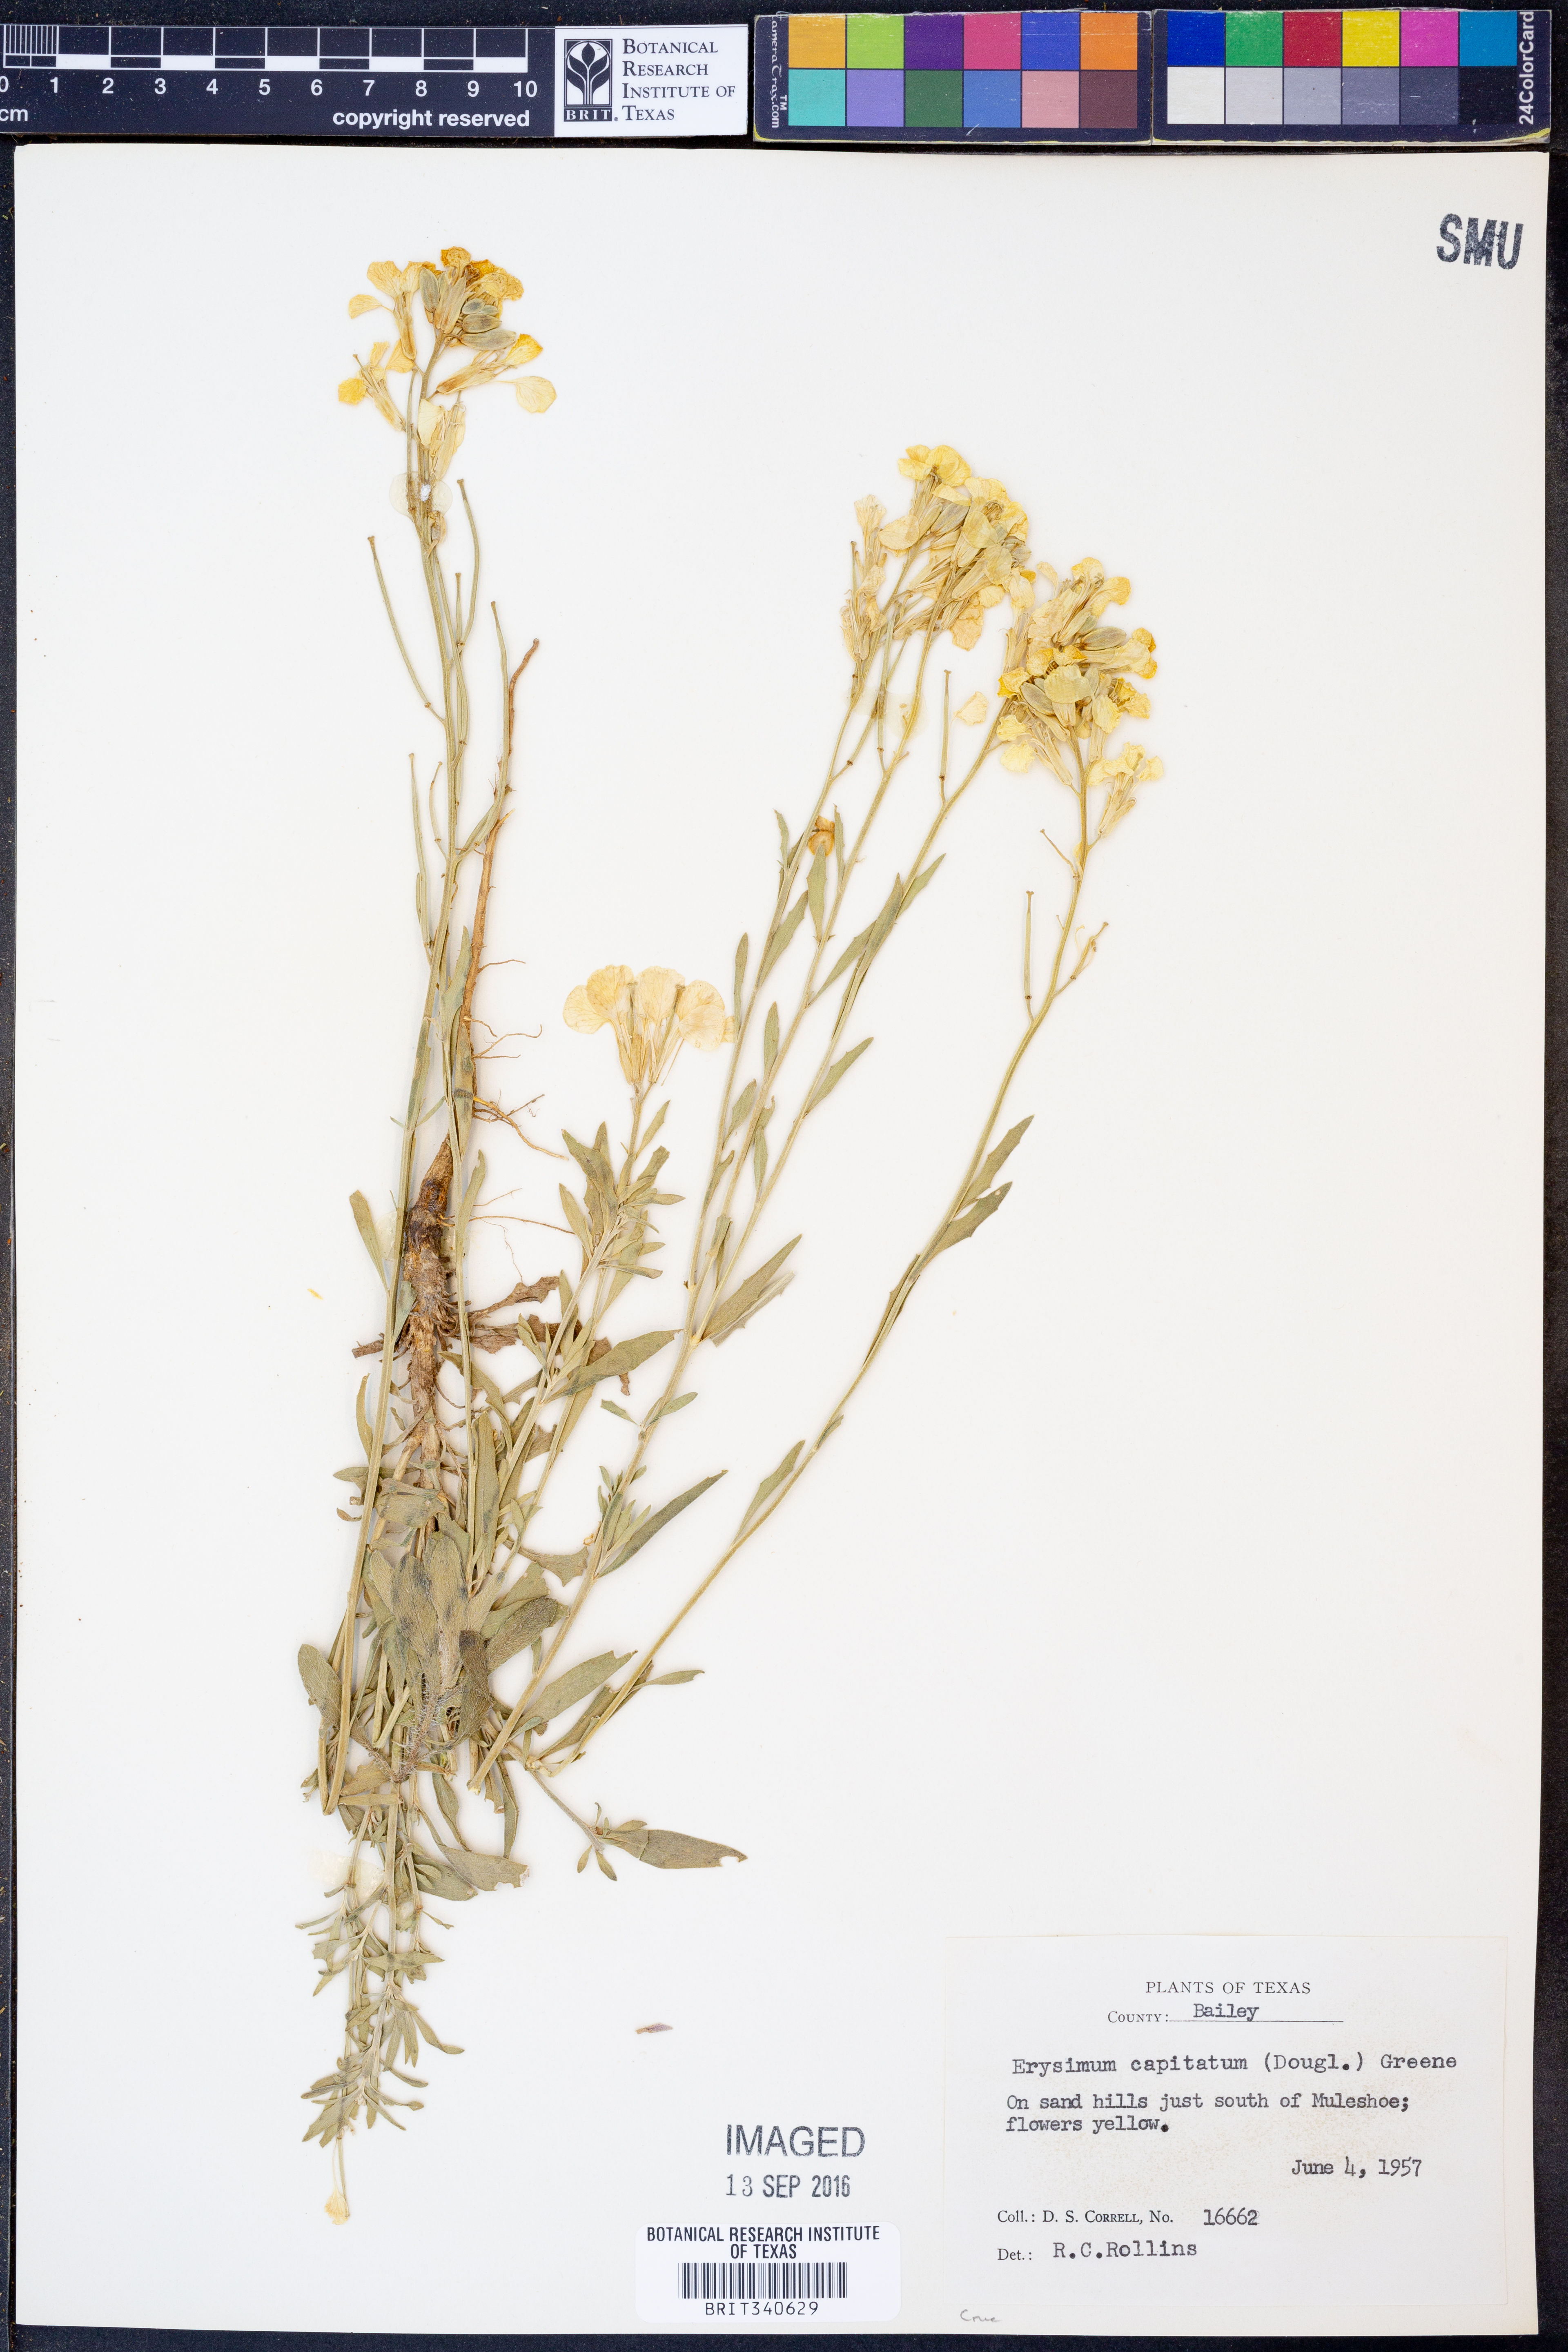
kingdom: Plantae
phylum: Tracheophyta
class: Magnoliopsida
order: Brassicales
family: Brassicaceae
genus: Erysimum
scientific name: Erysimum capitatum
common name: Western wallflower
